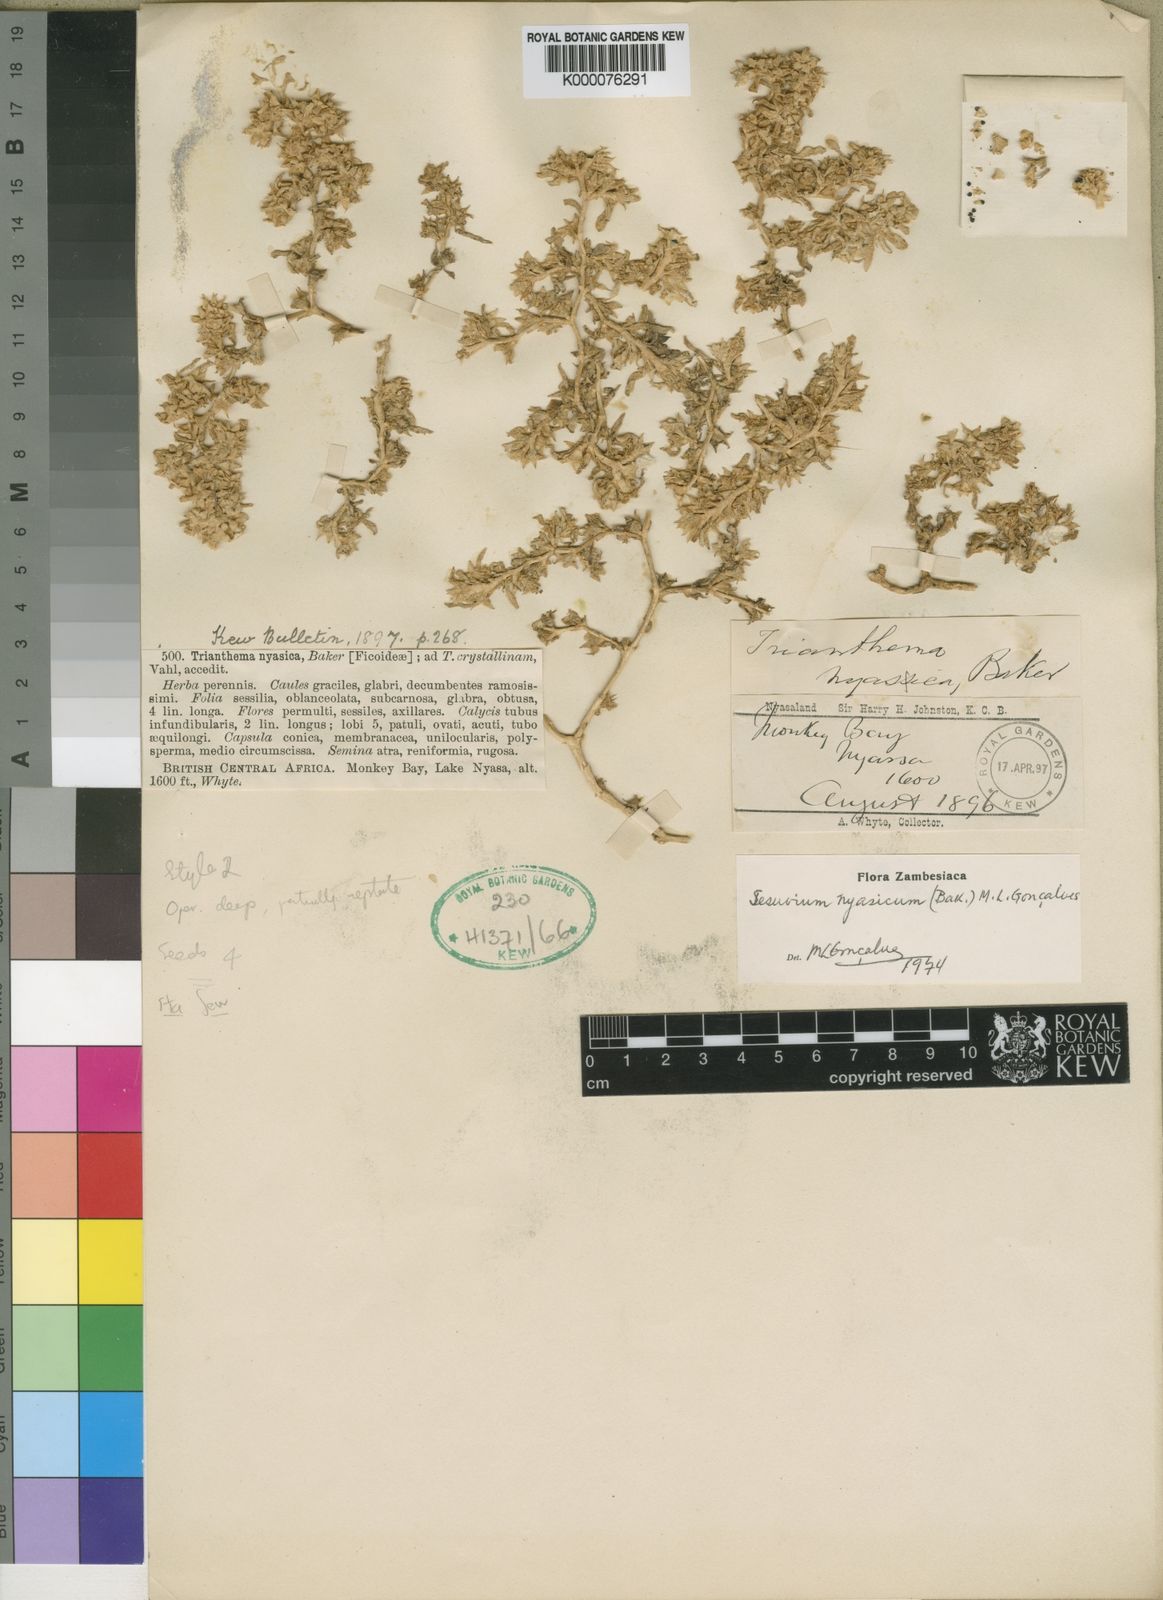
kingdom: Plantae
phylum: Tracheophyta
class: Magnoliopsida
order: Caryophyllales
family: Aizoaceae
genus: Sesuvium
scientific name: Sesuvium hydaspicum
